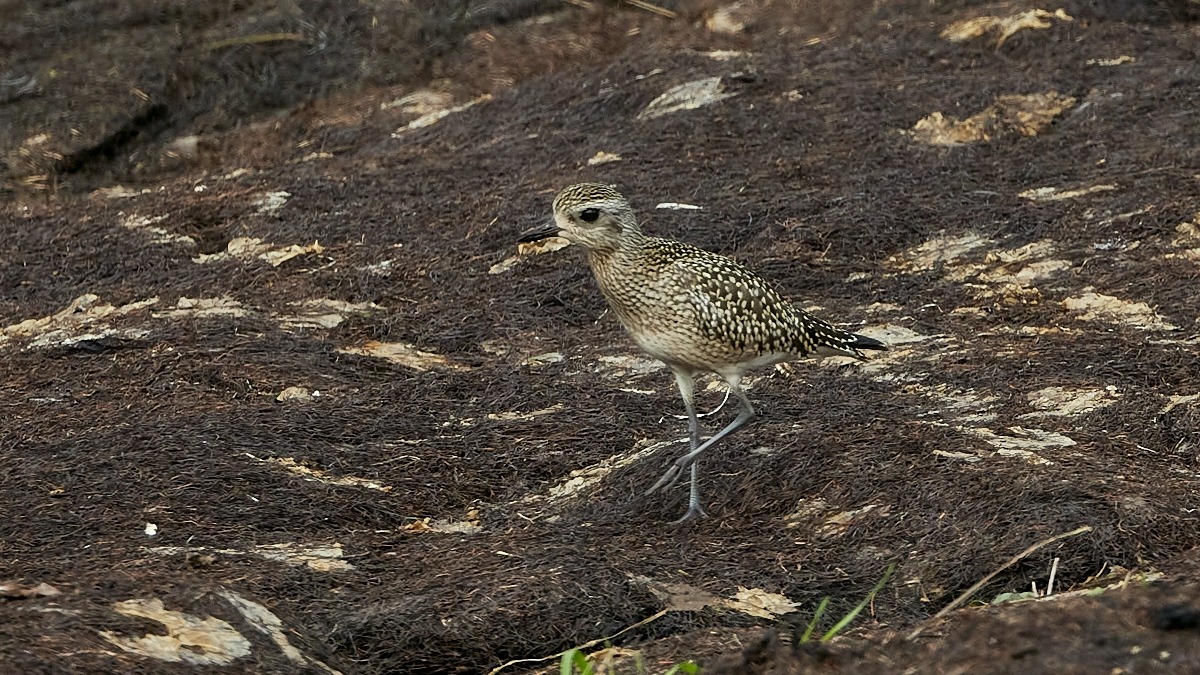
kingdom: Animalia
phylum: Chordata
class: Aves
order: Charadriiformes
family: Charadriidae
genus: Pluvialis
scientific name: Pluvialis squatarola
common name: Strandhjejle
